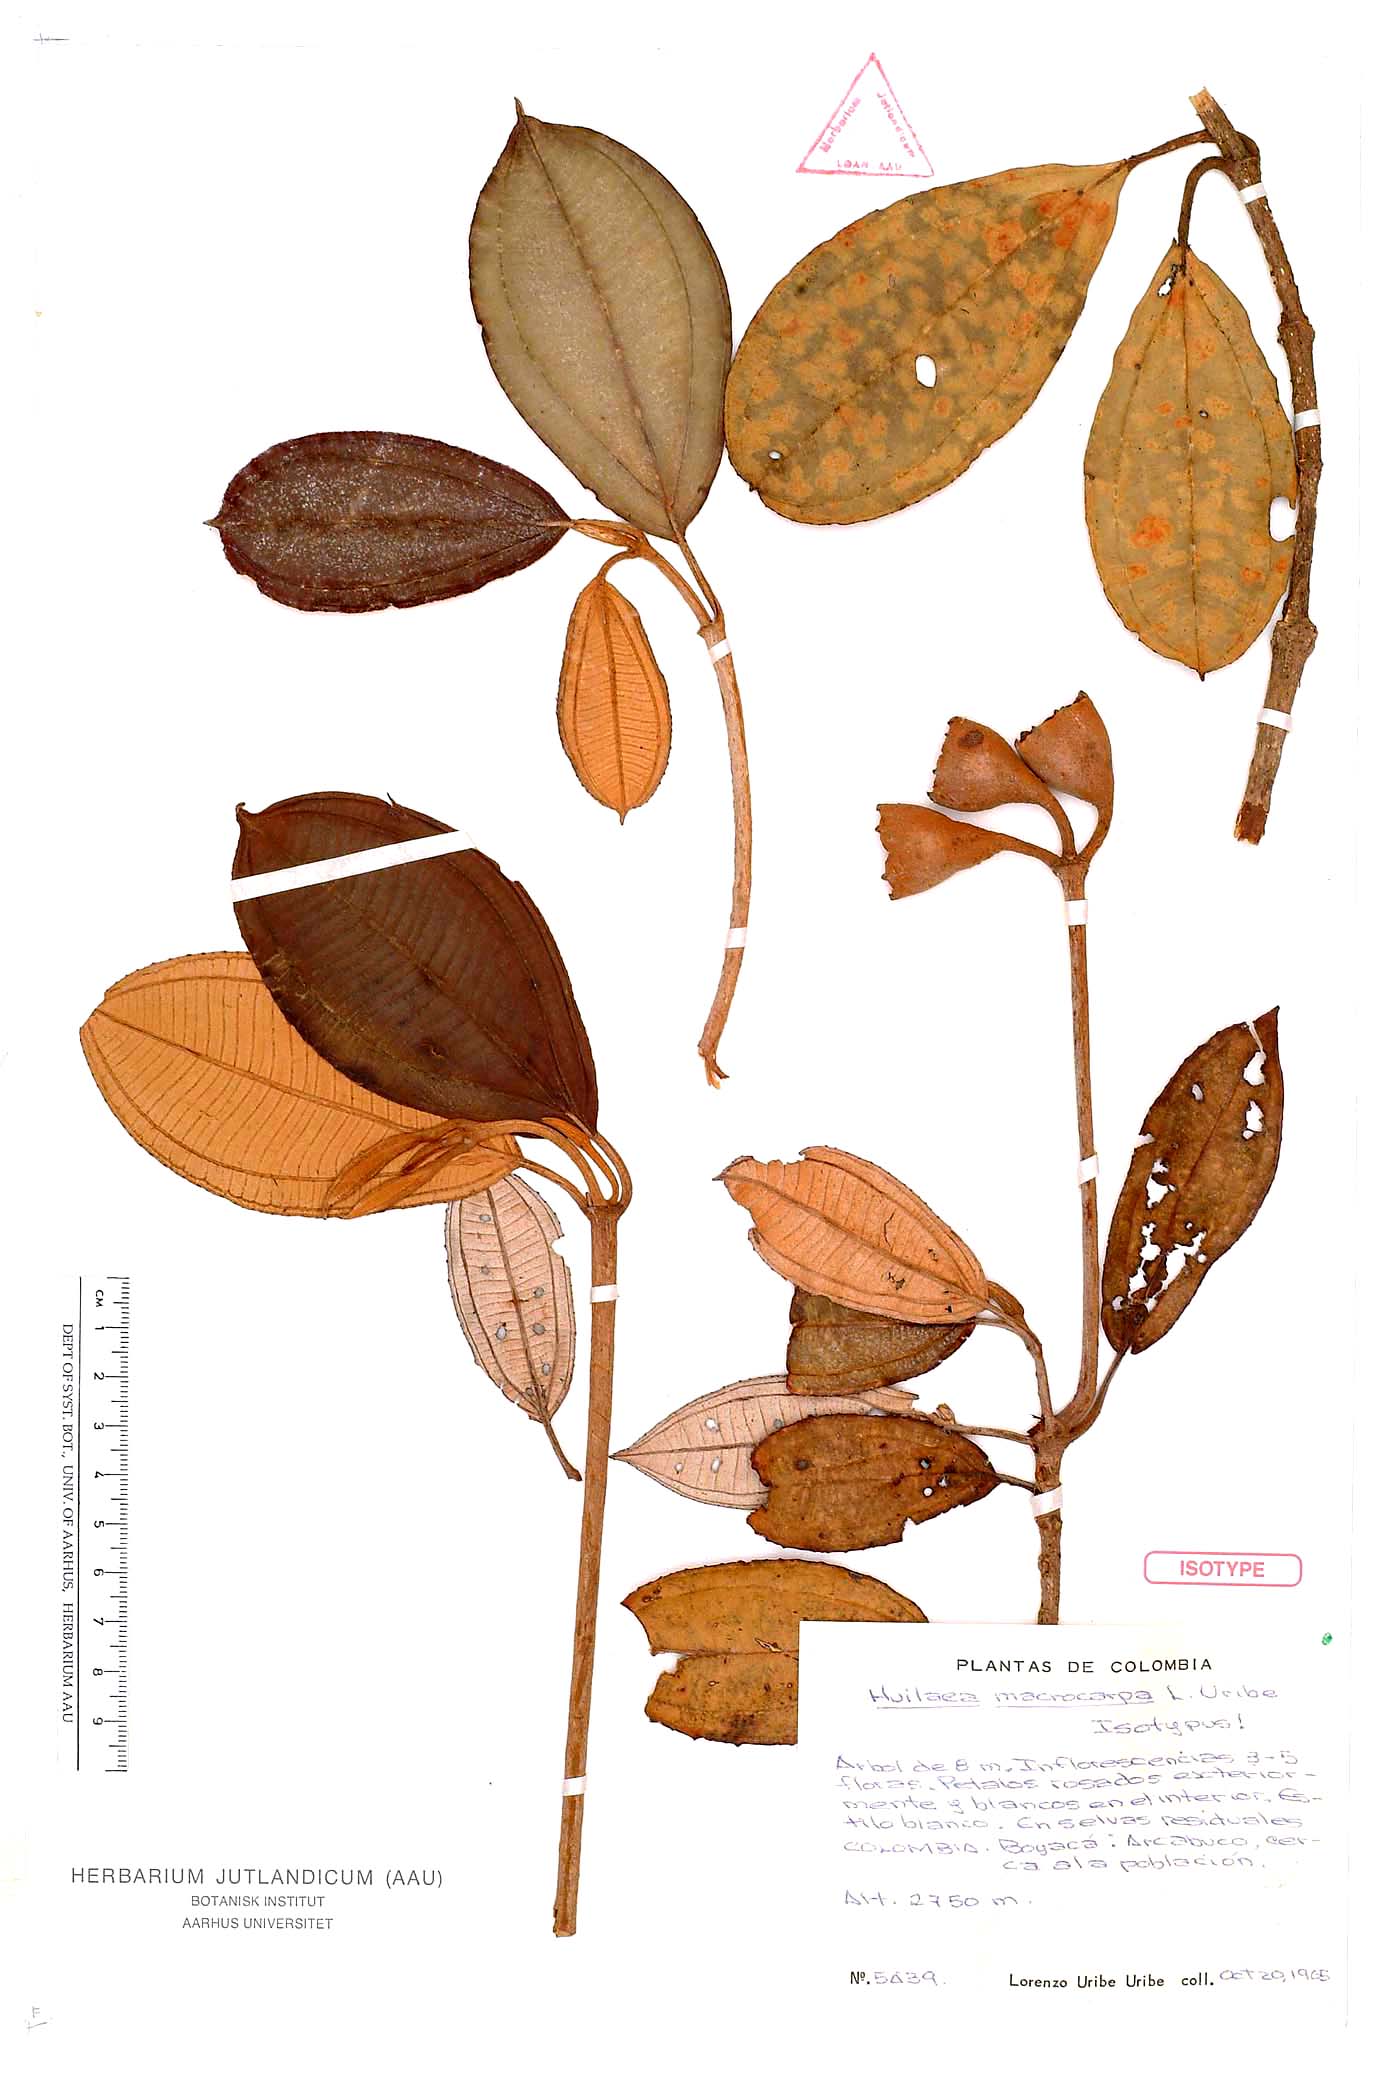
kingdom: Plantae
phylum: Tracheophyta
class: Magnoliopsida
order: Myrtales
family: Melastomataceae
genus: Chalybea
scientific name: Chalybea macrocarpa
